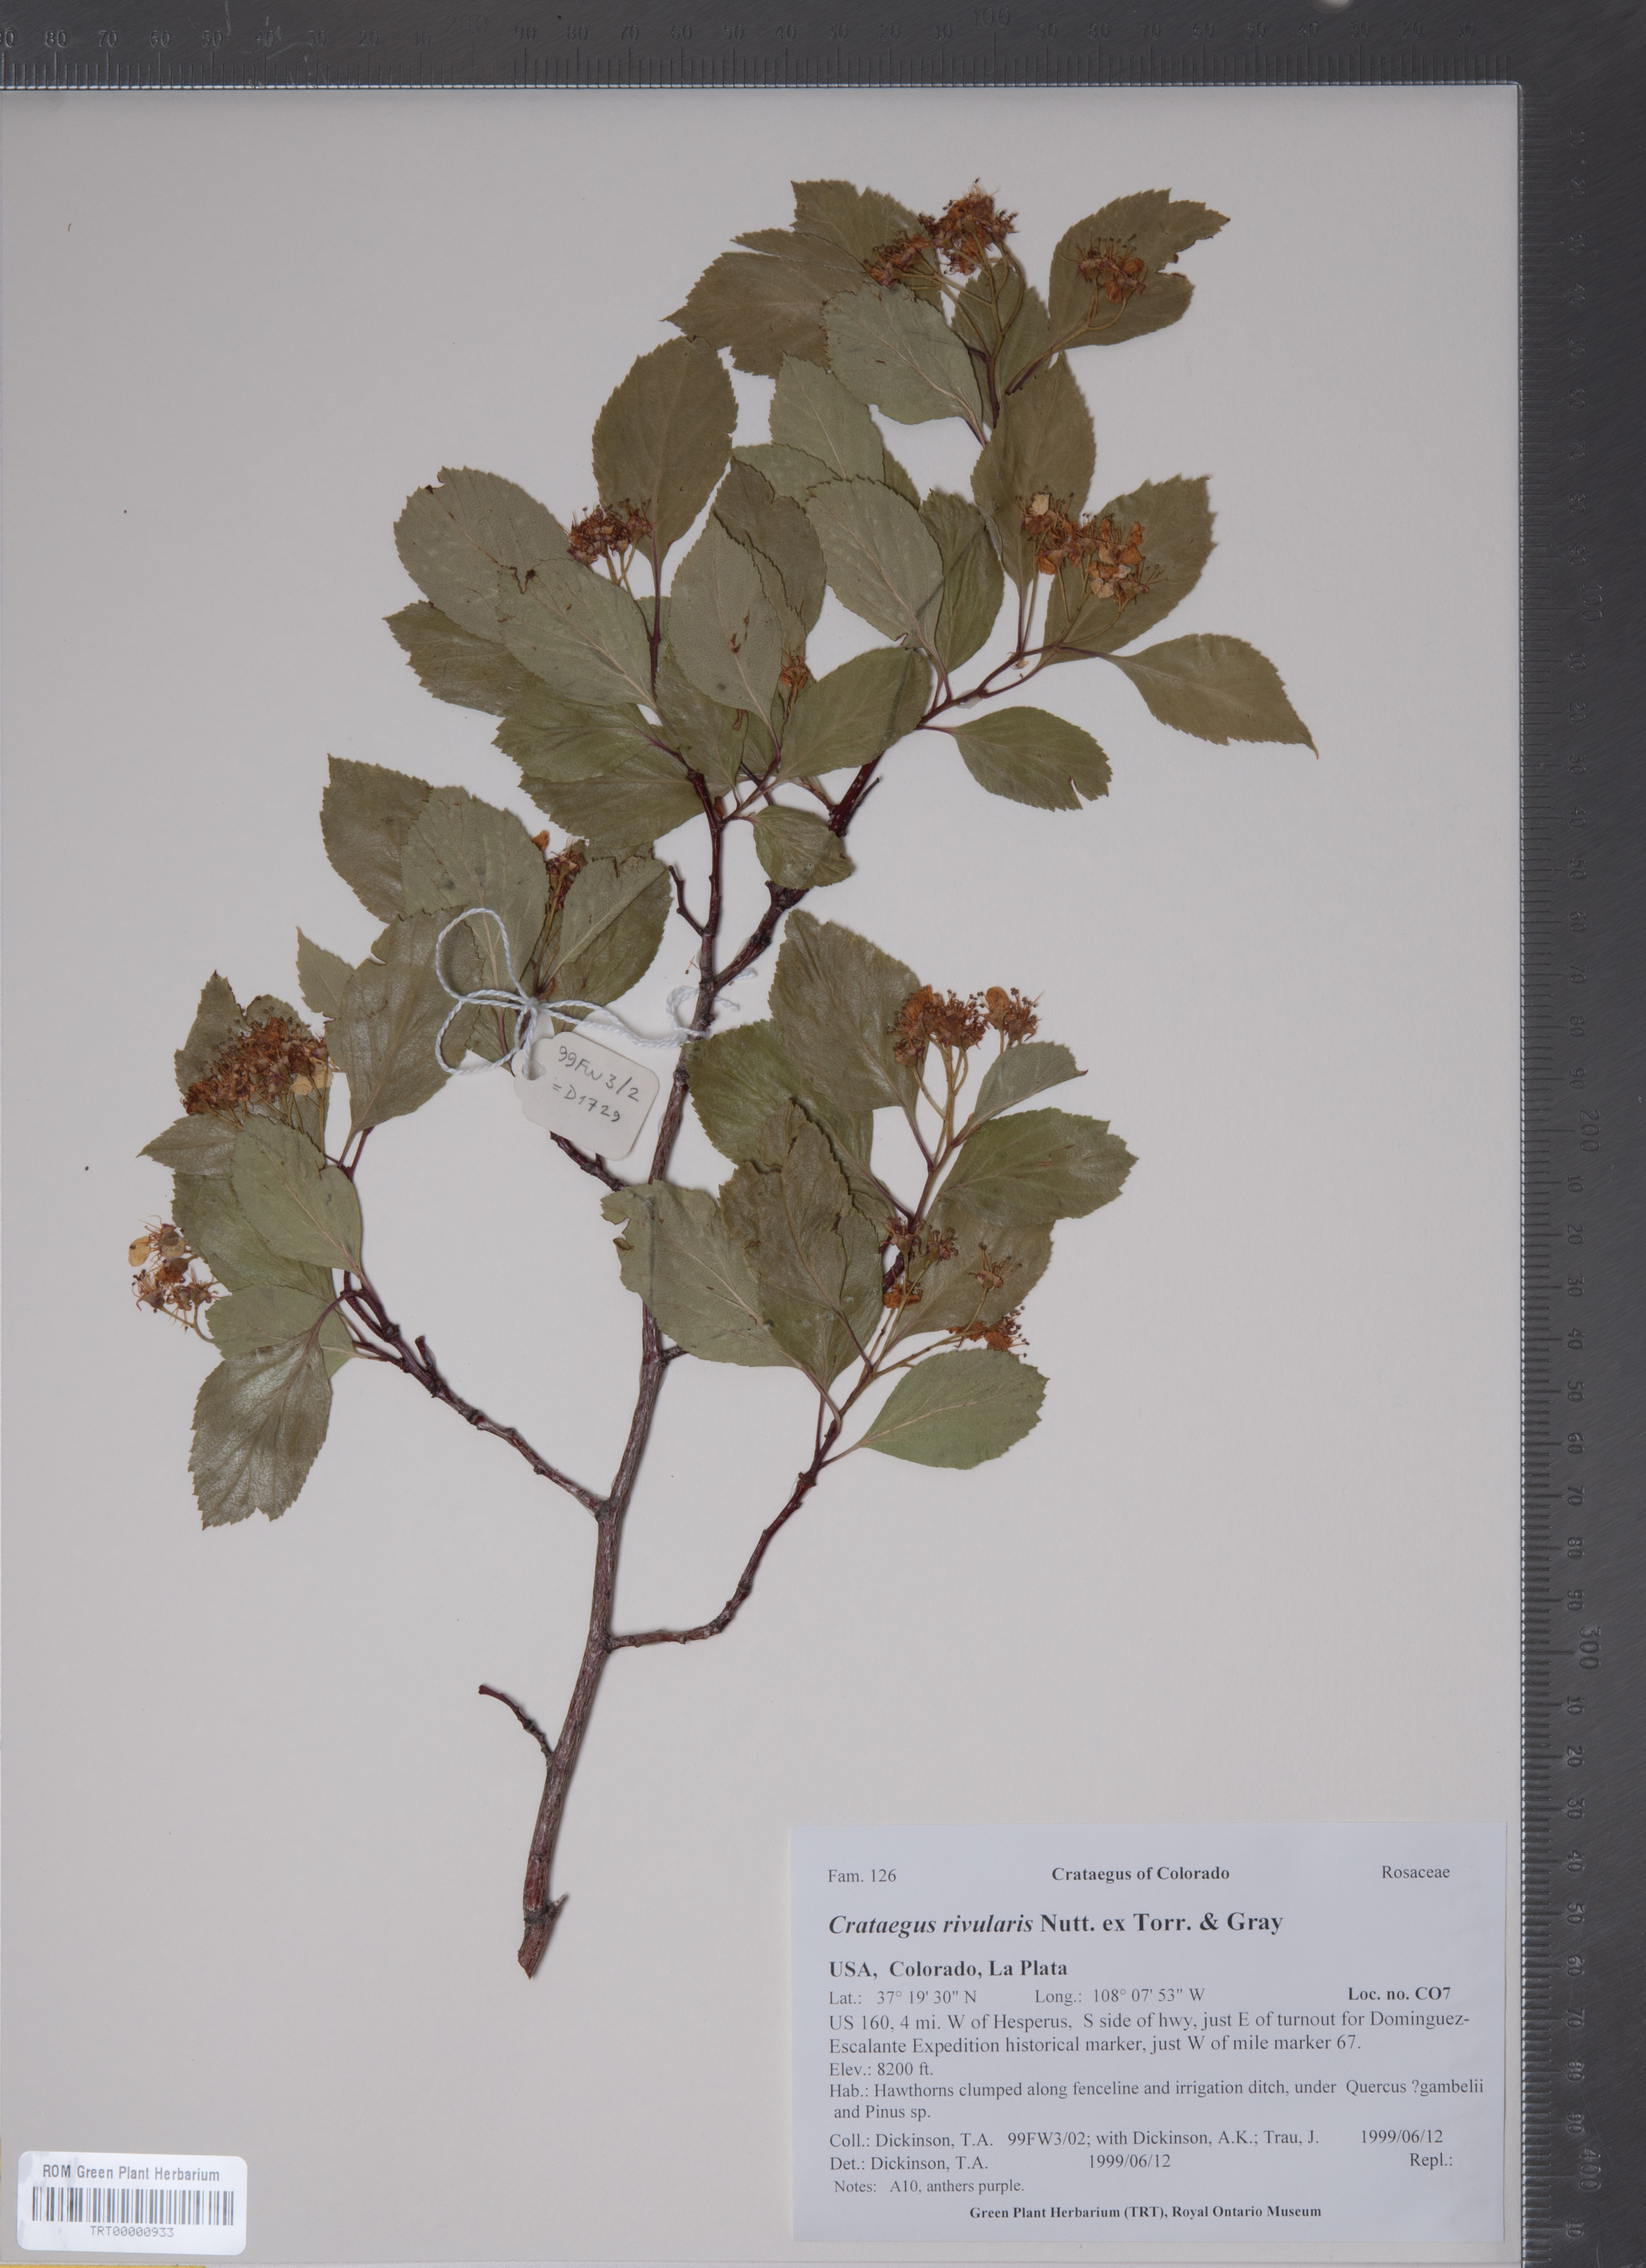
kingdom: Plantae
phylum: Tracheophyta
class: Magnoliopsida
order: Rosales
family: Rosaceae
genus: Crataegus
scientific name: Crataegus rivularis
